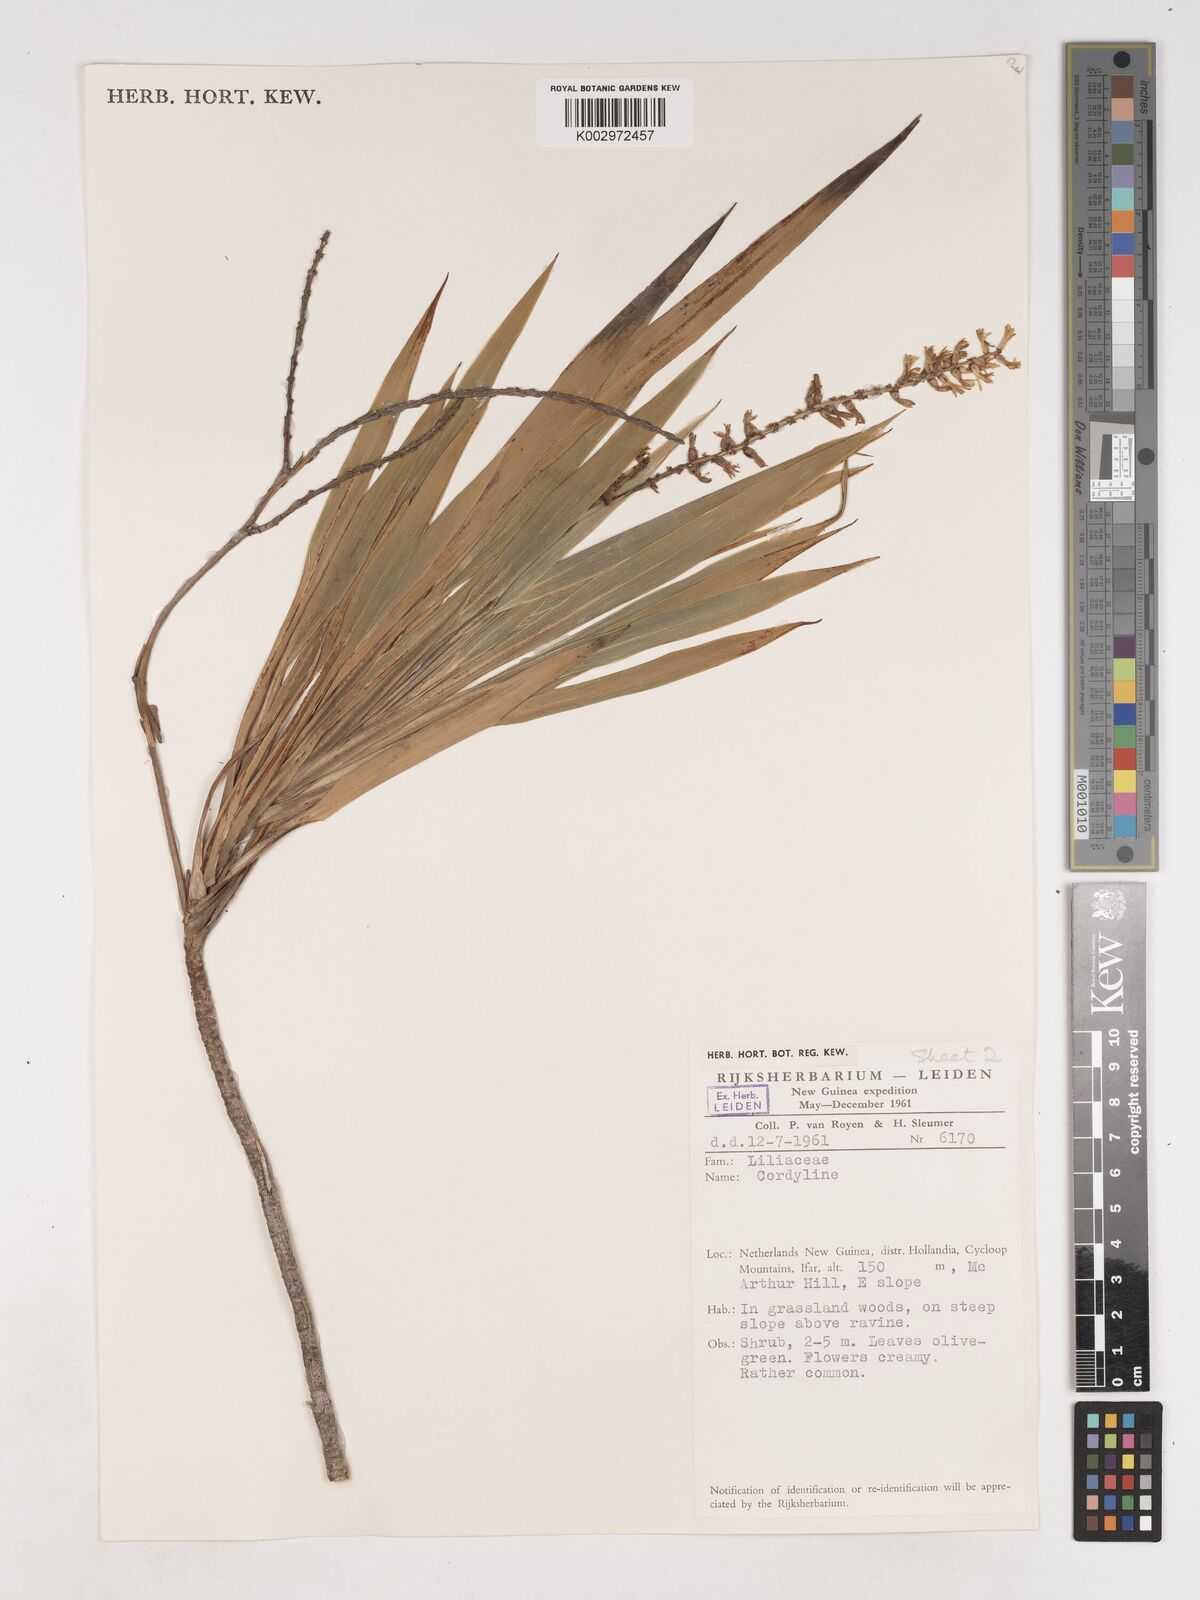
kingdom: Plantae
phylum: Tracheophyta
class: Liliopsida
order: Asparagales
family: Asparagaceae
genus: Cordyline
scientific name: Cordyline angustissima
